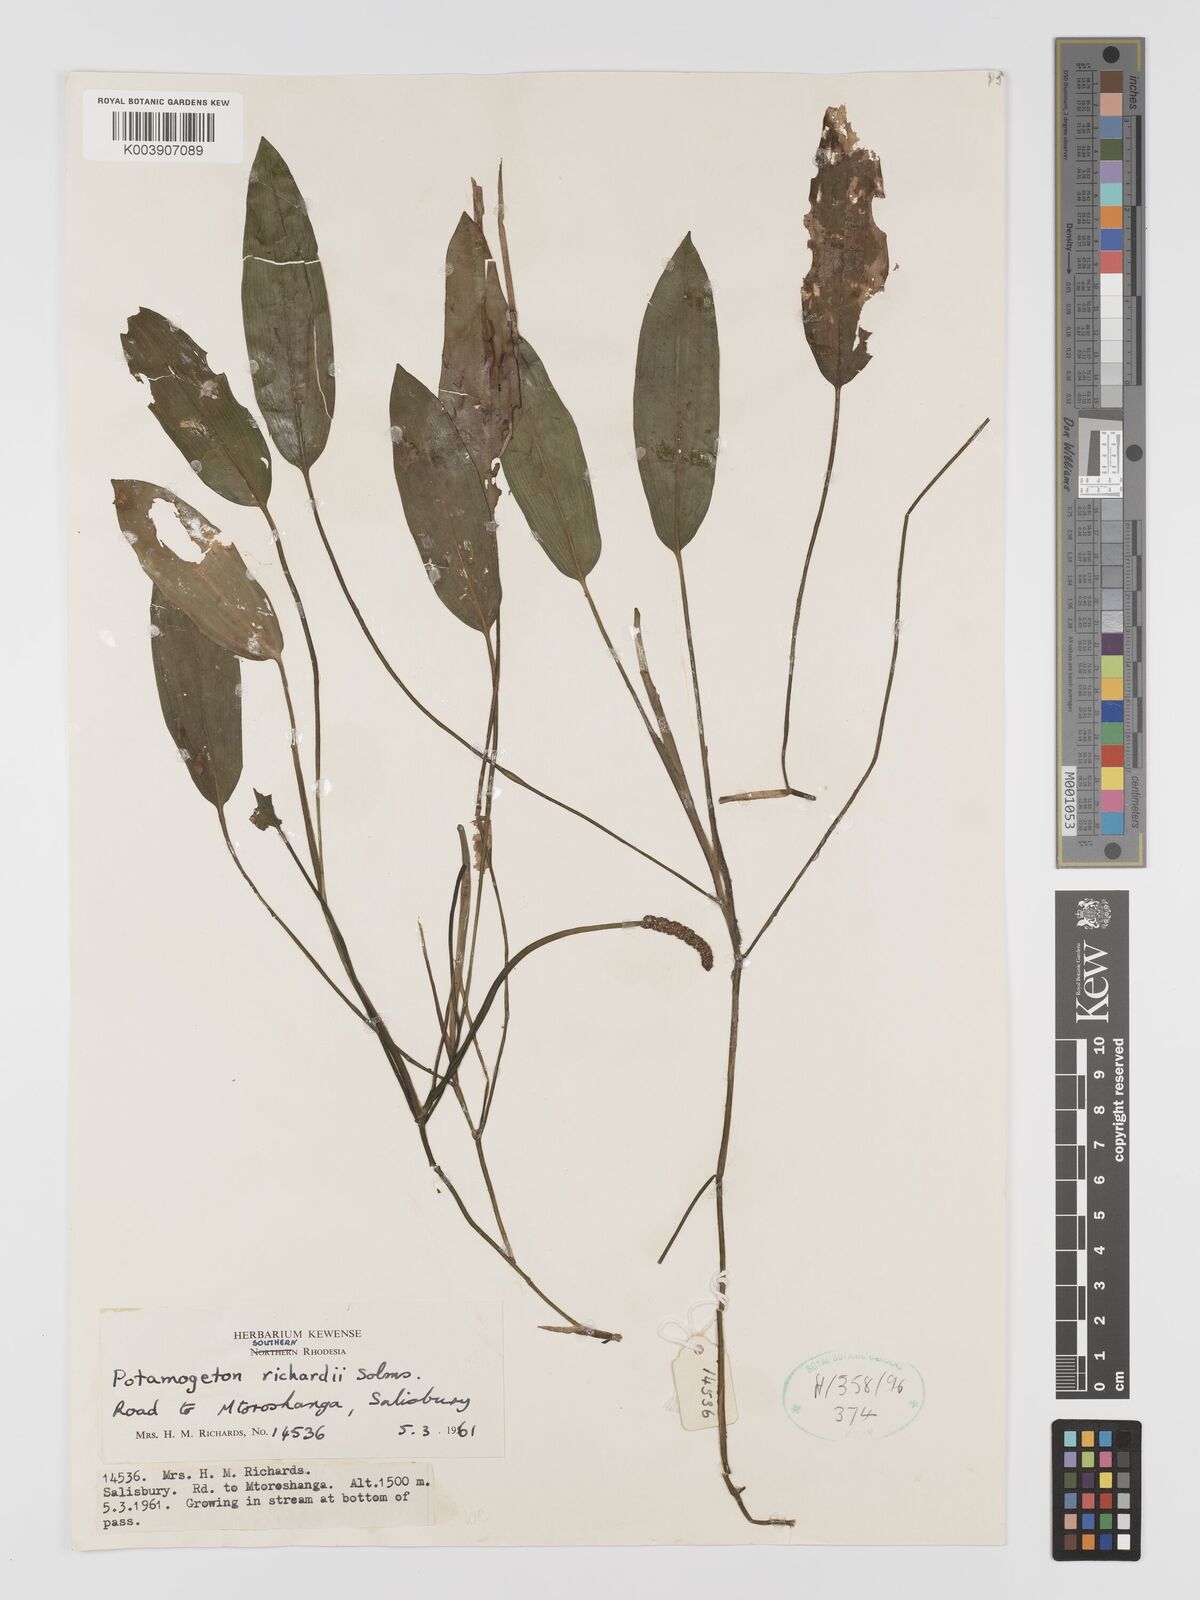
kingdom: Plantae
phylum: Tracheophyta
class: Liliopsida
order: Alismatales
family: Potamogetonaceae
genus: Potamogeton
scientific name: Potamogeton nodosus
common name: Loddon pondweed
